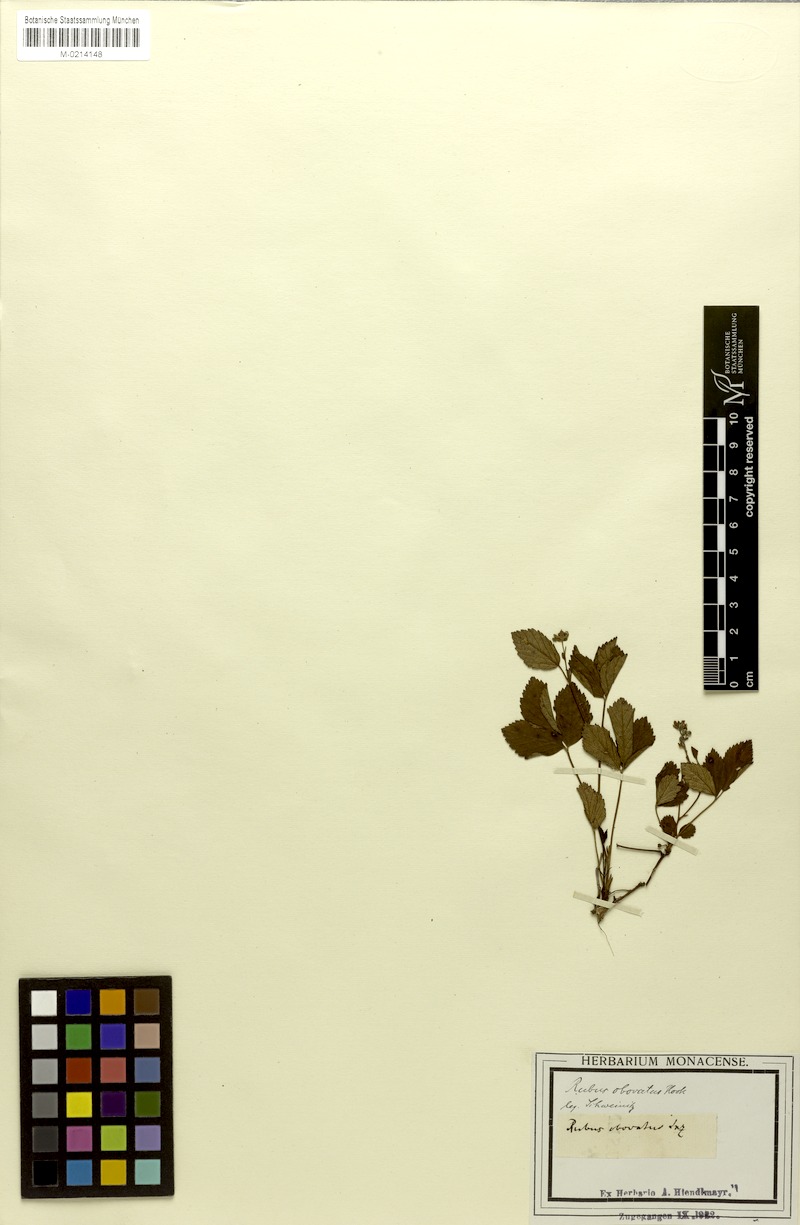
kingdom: Plantae
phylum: Tracheophyta
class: Magnoliopsida
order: Rosales
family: Rosaceae
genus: Rubus
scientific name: Rubus hispidus
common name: Running blackberry
